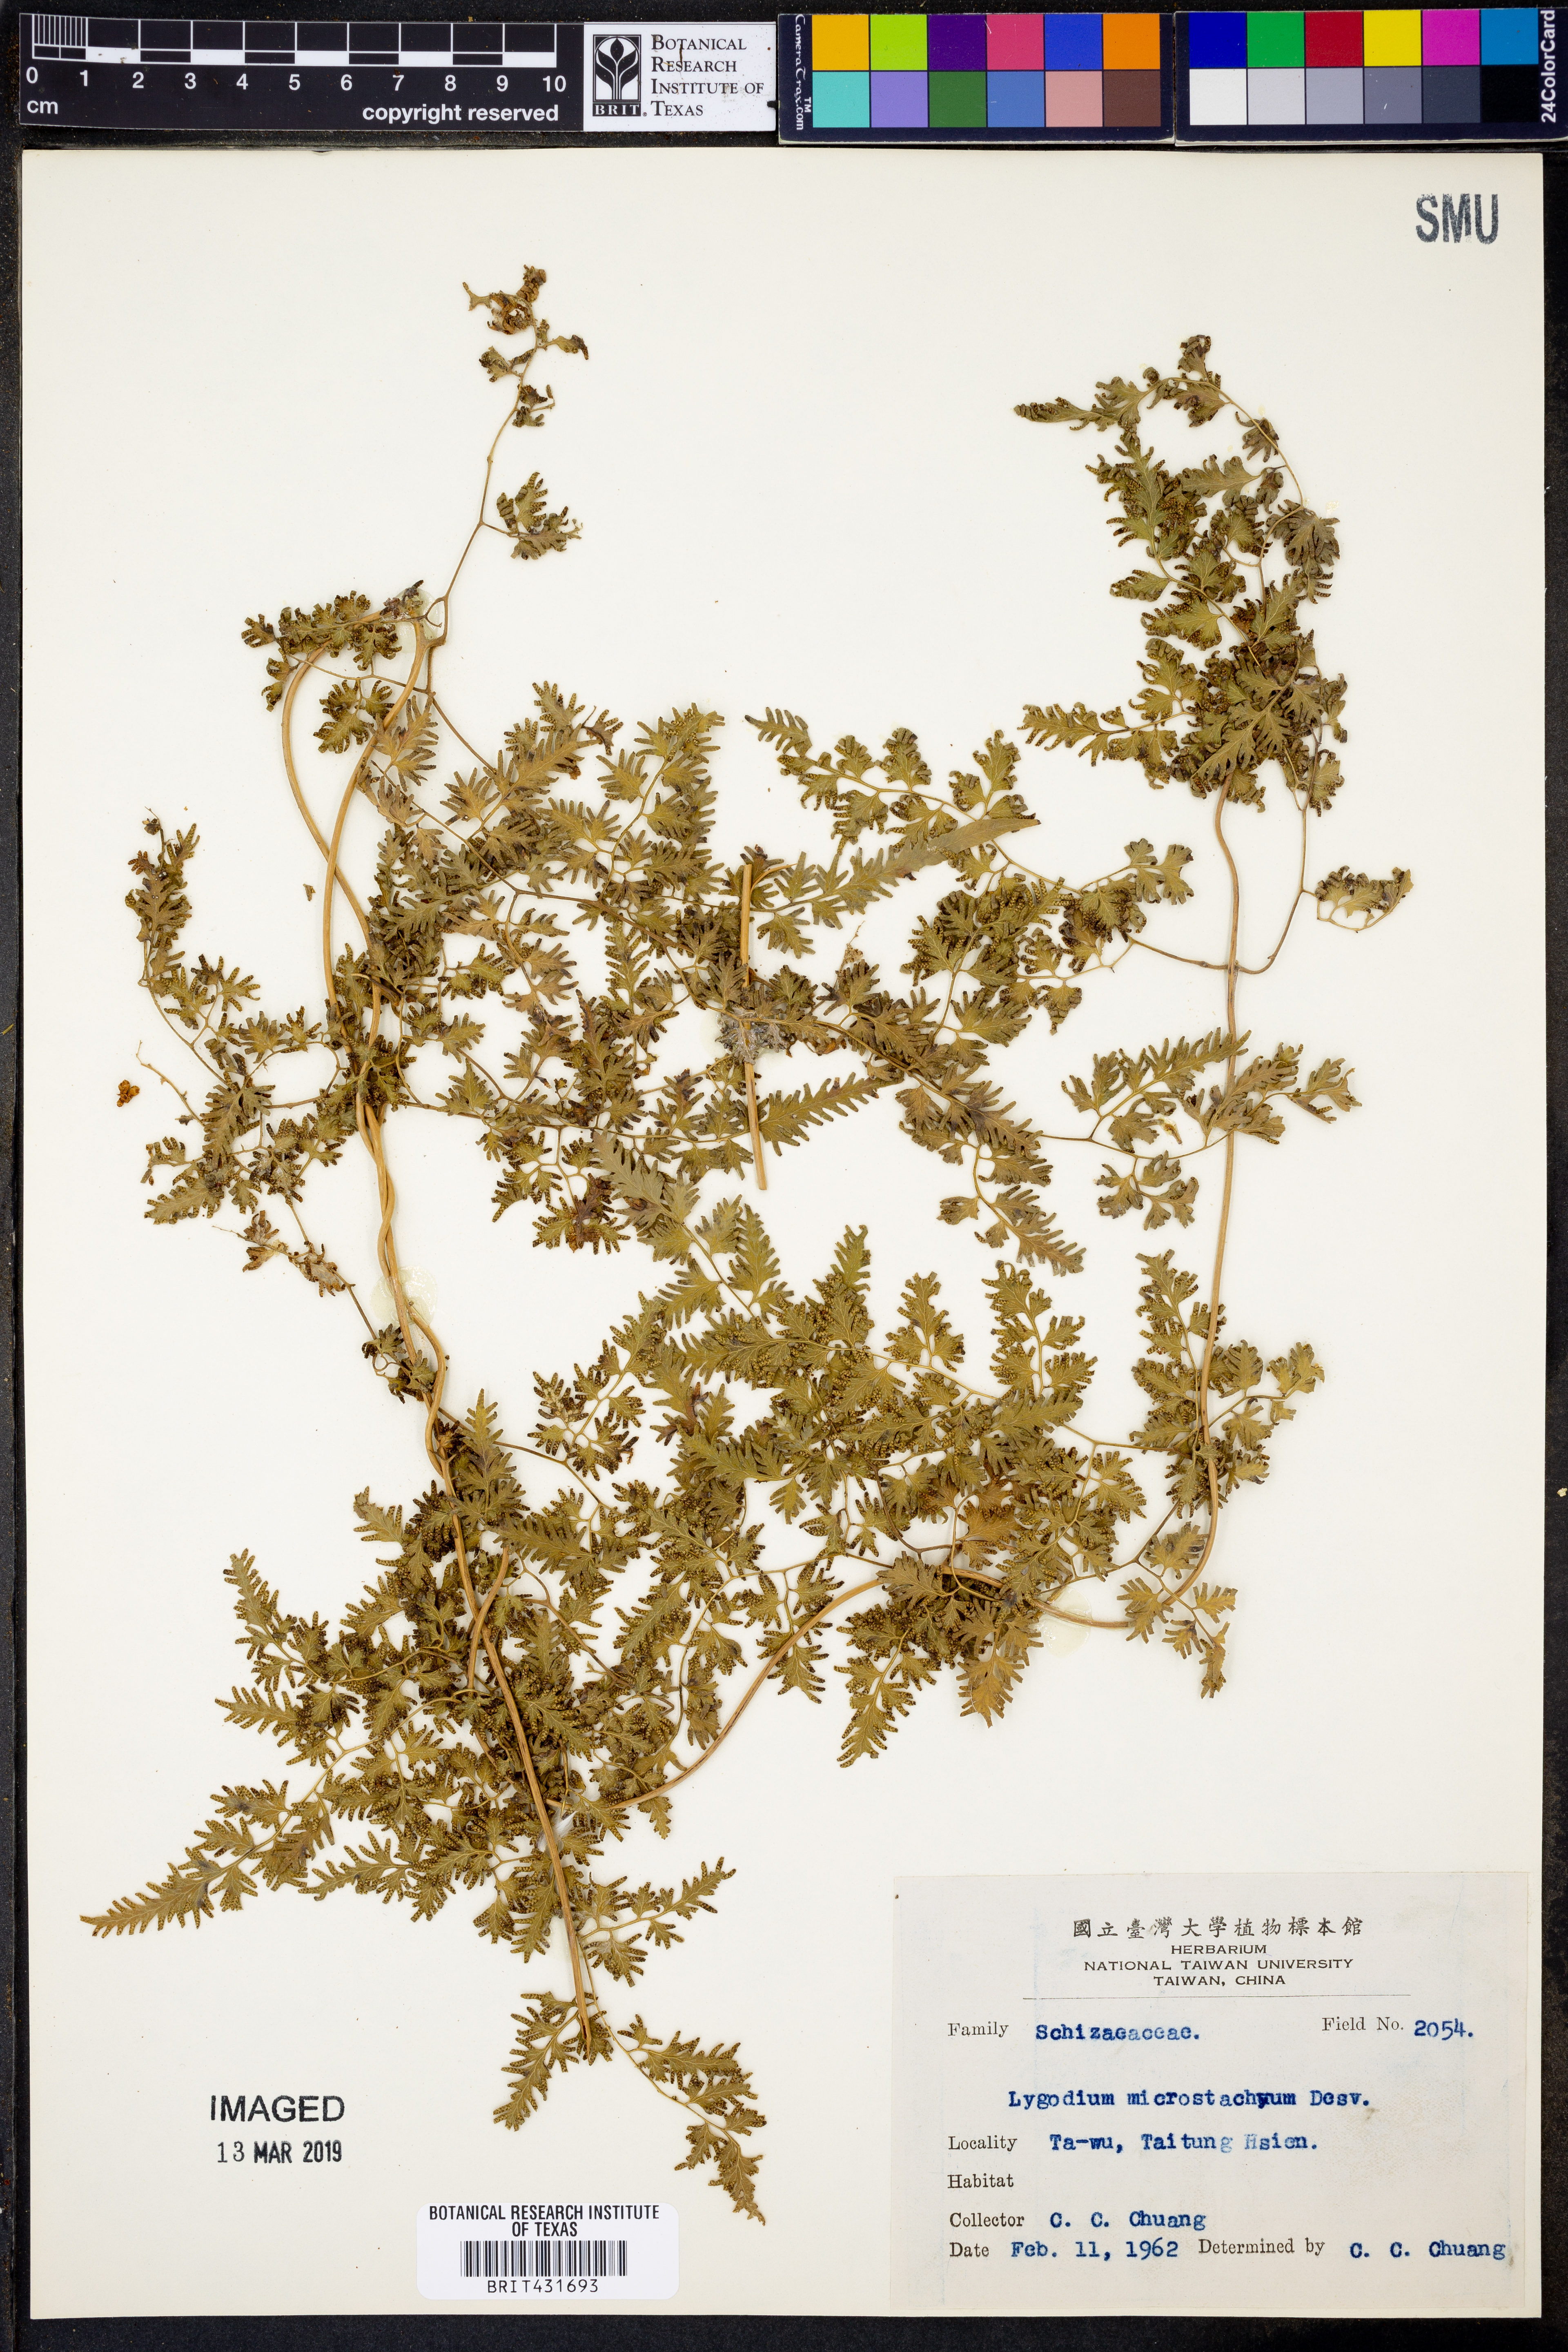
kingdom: Plantae
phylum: Tracheophyta
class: Polypodiopsida
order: Schizaeales
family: Lygodiaceae
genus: Lygodium
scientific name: Lygodium japonicum
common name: Japanese climbing fern
